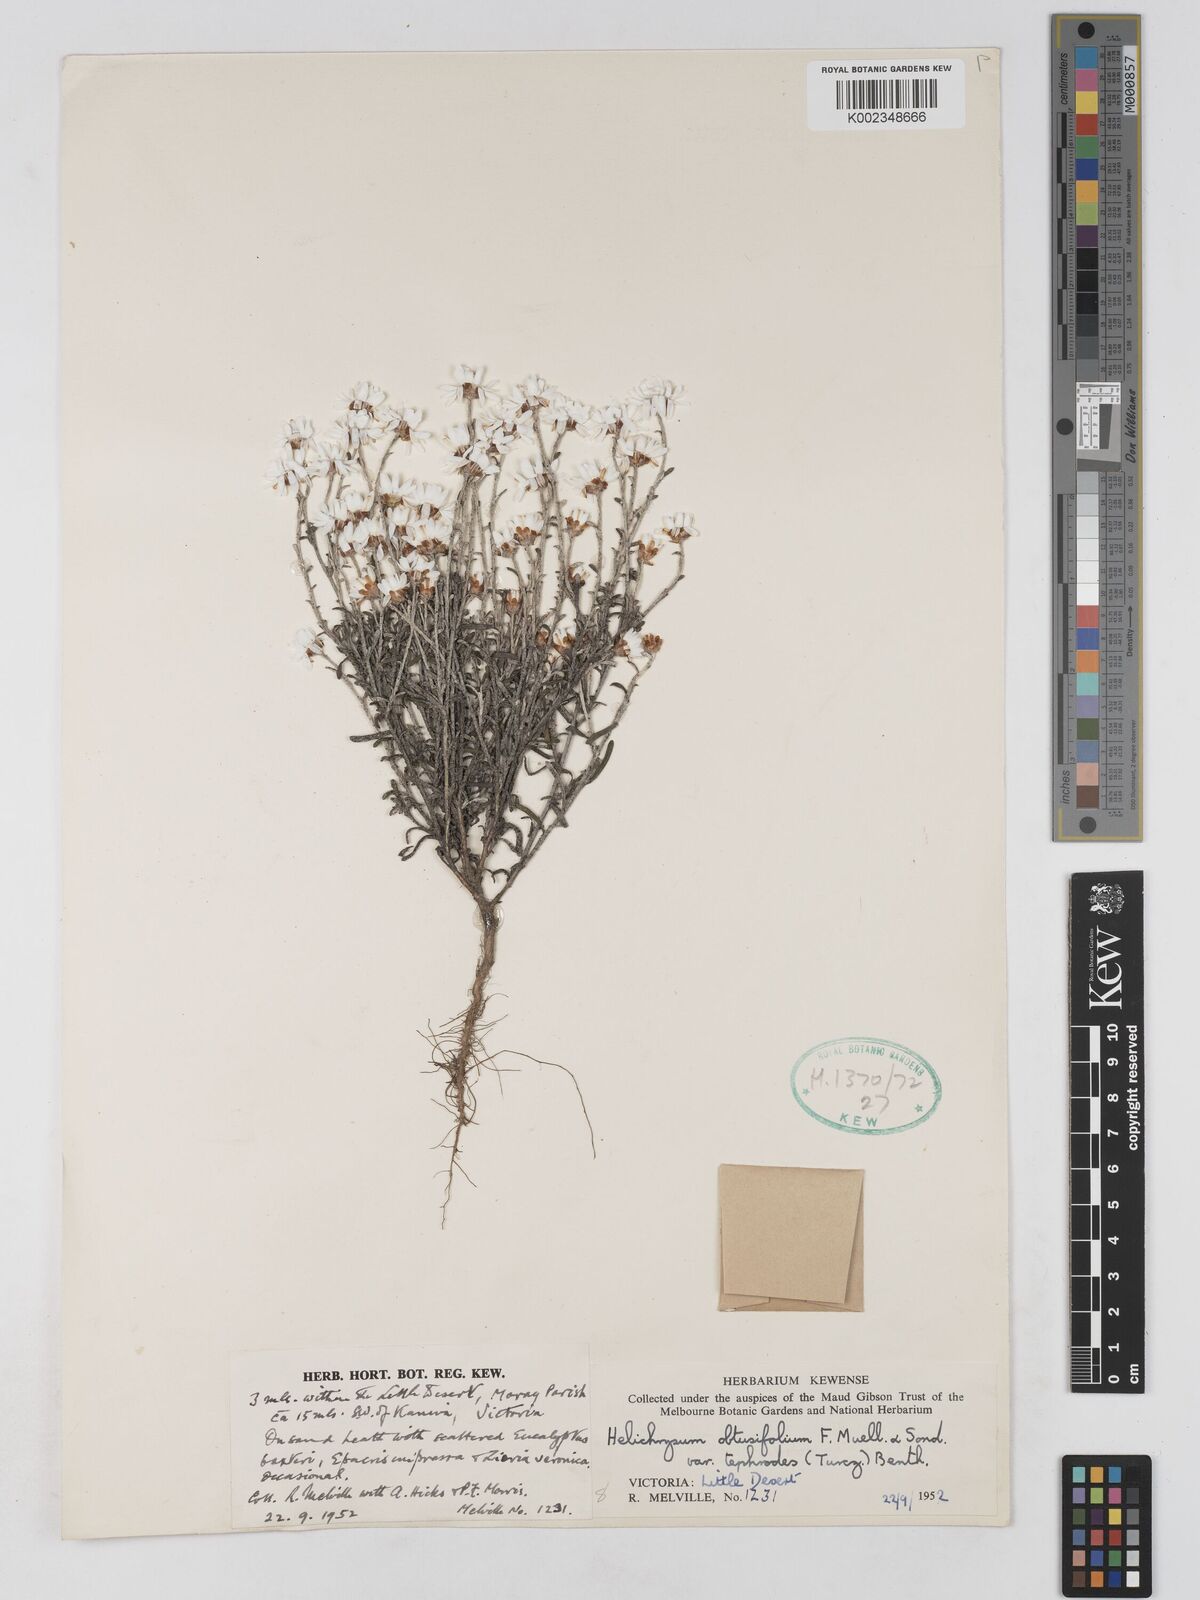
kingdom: Plantae
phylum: Tracheophyta
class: Magnoliopsida
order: Asterales
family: Asteraceae
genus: Argentipallium
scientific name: Argentipallium
